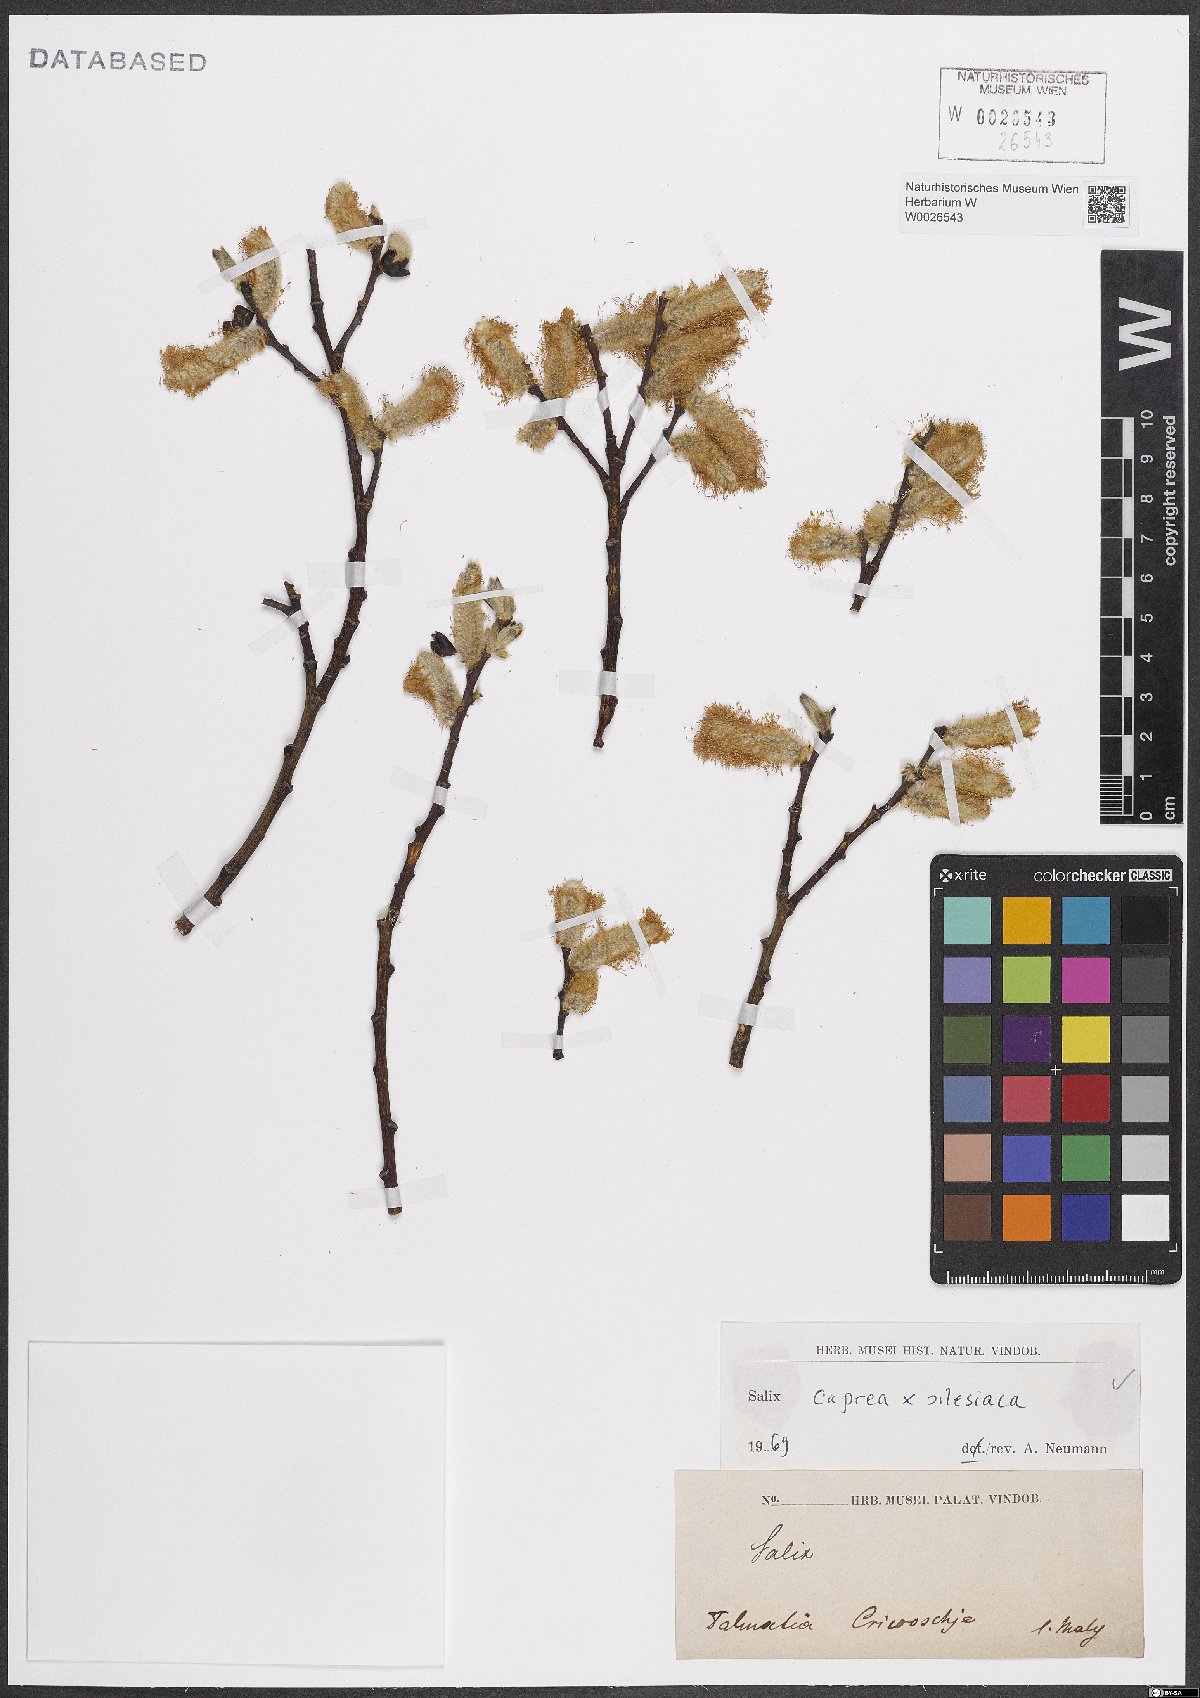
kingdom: Plantae
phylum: Tracheophyta
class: Magnoliopsida
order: Malpighiales
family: Salicaceae
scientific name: Salicaceae
